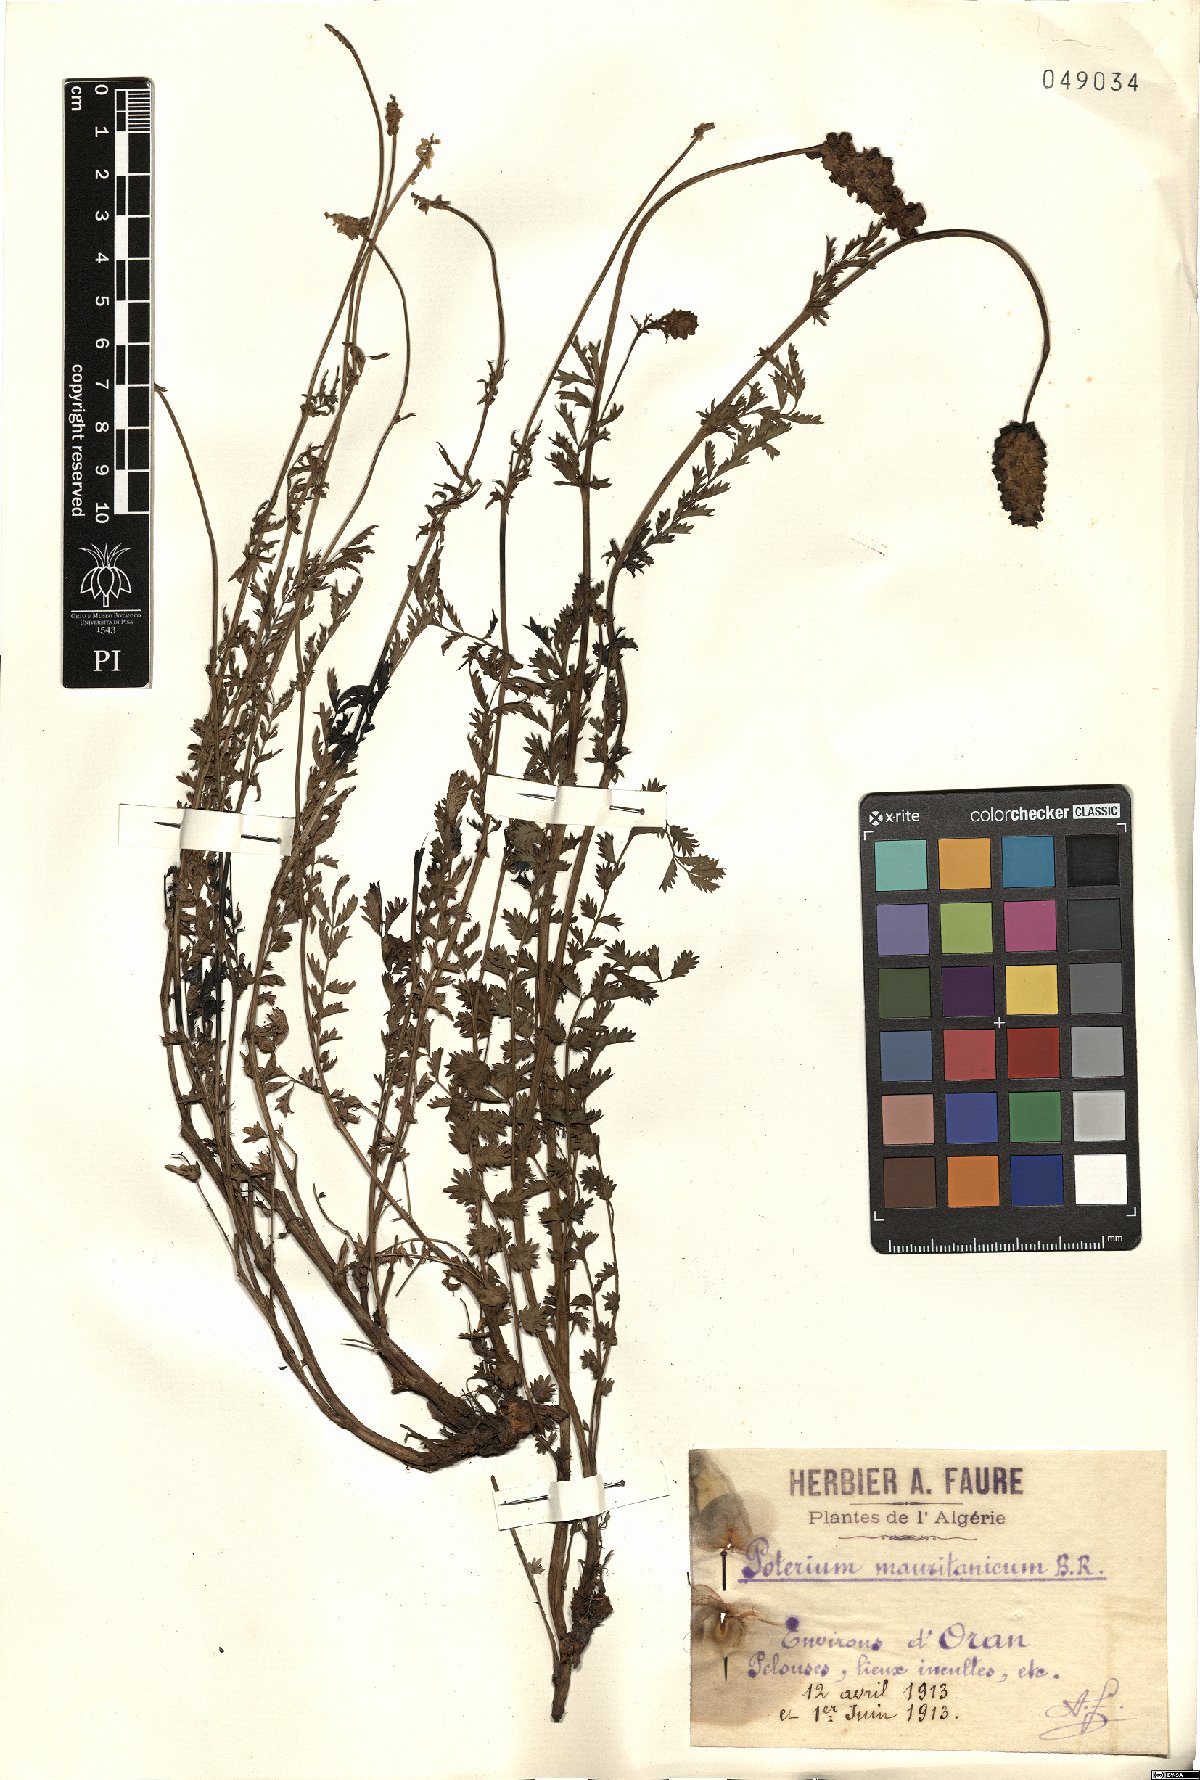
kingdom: Plantae
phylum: Tracheophyta
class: Magnoliopsida
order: Rosales
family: Rosaceae
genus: Poterium
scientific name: Poterium mauritanicum
